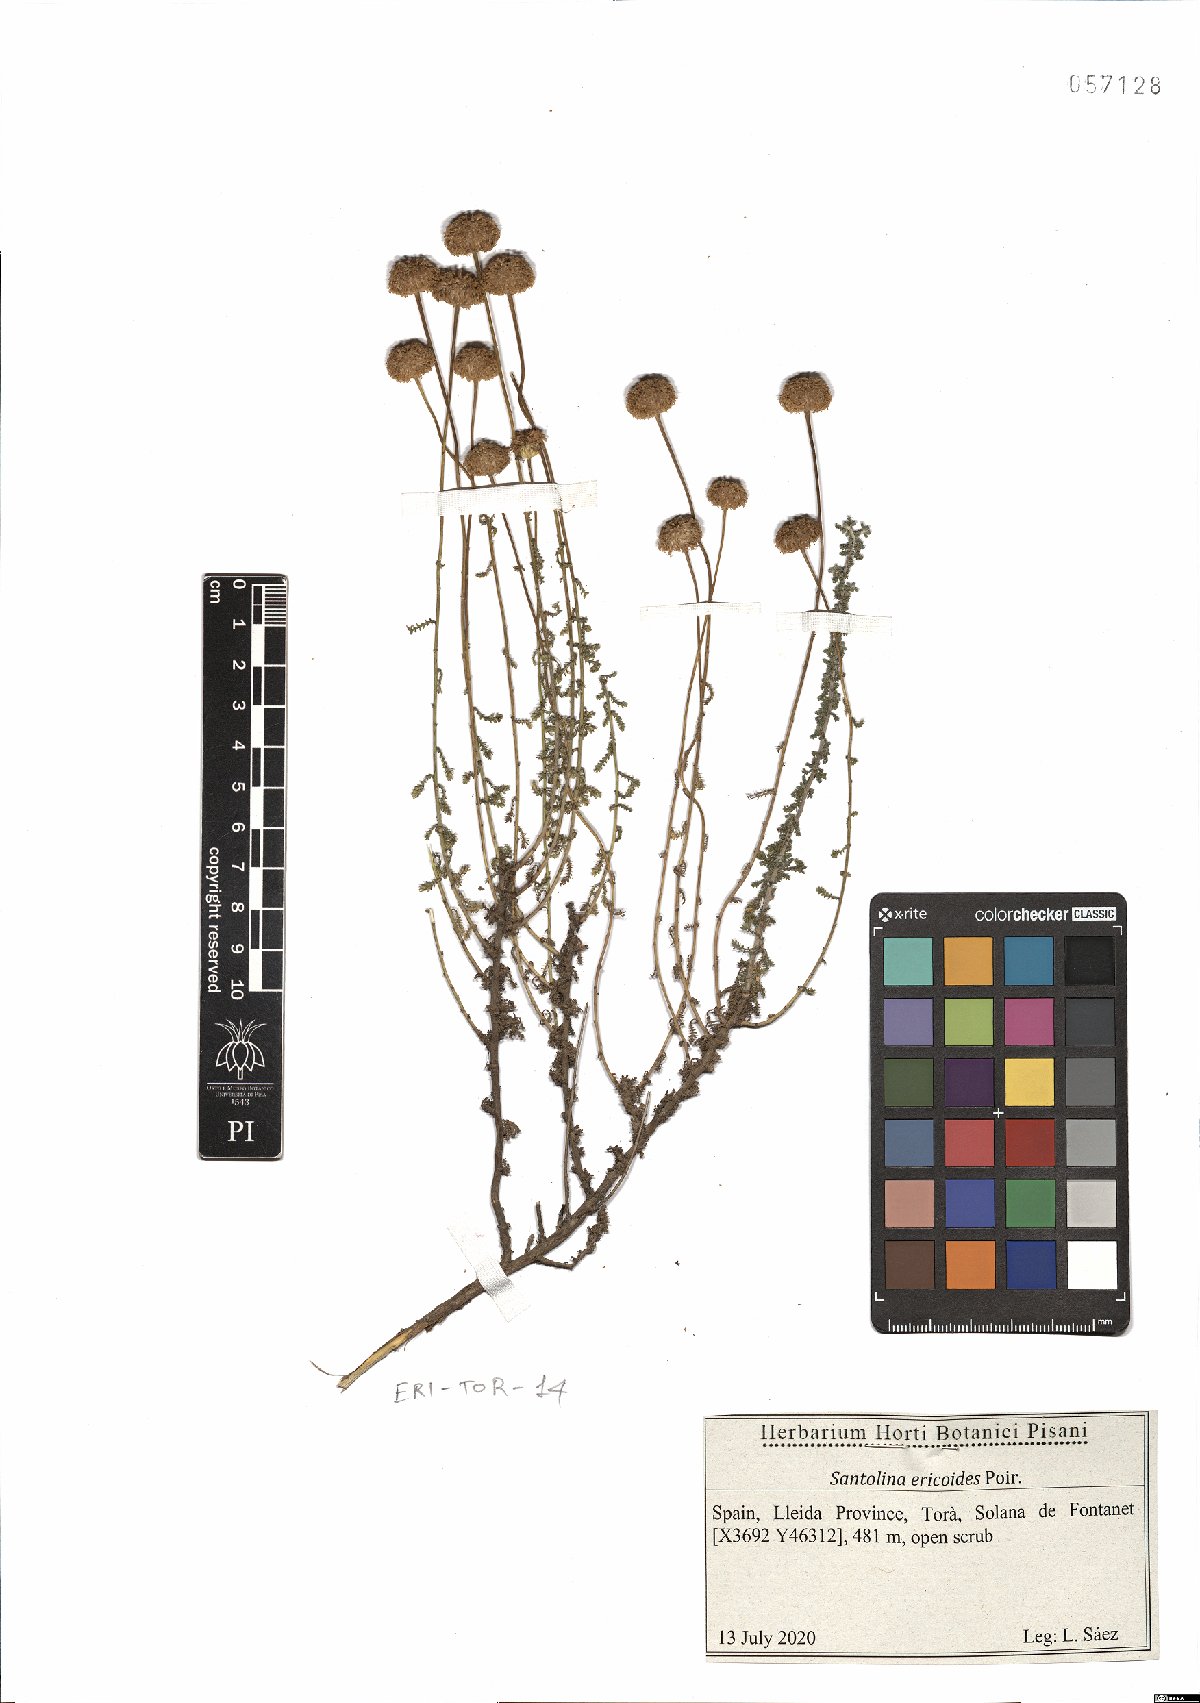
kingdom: Plantae
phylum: Tracheophyta
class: Magnoliopsida
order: Asterales
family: Asteraceae
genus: Santolina
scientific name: Santolina ericoides
